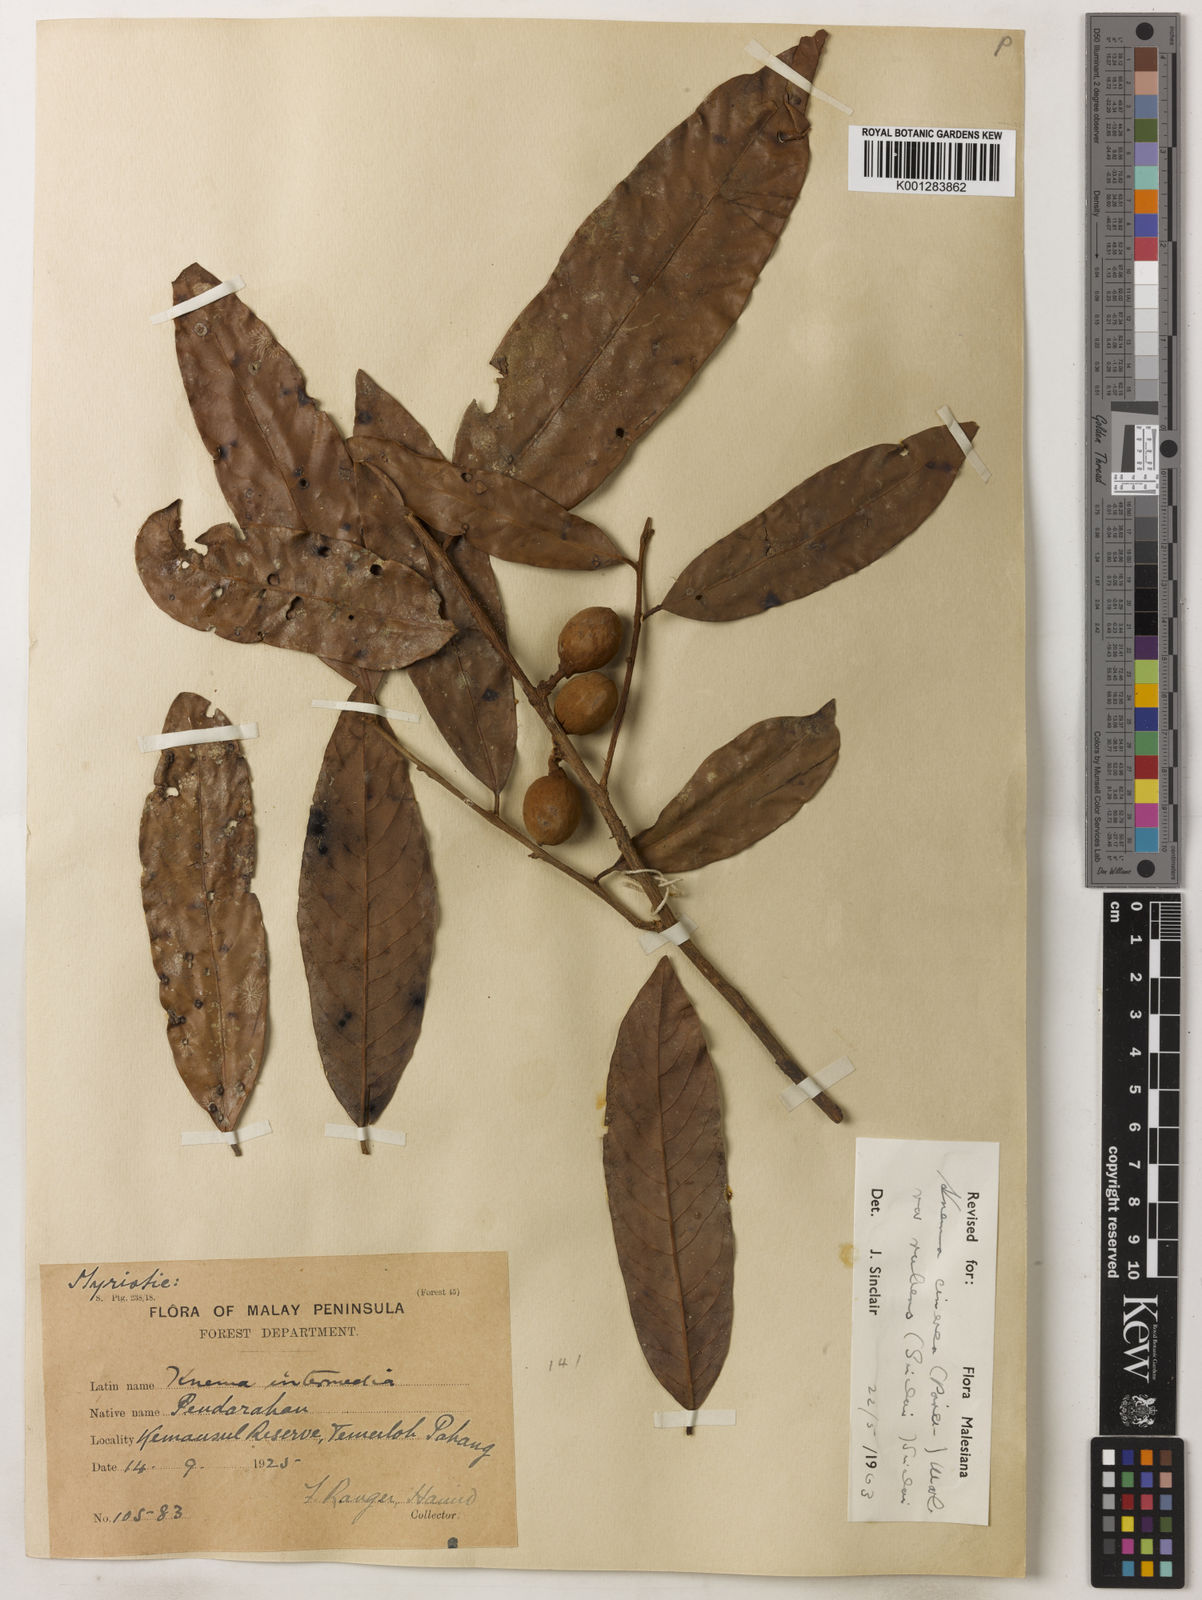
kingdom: Plantae
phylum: Tracheophyta
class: Magnoliopsida
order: Magnoliales
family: Myristicaceae
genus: Knema
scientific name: Knema
